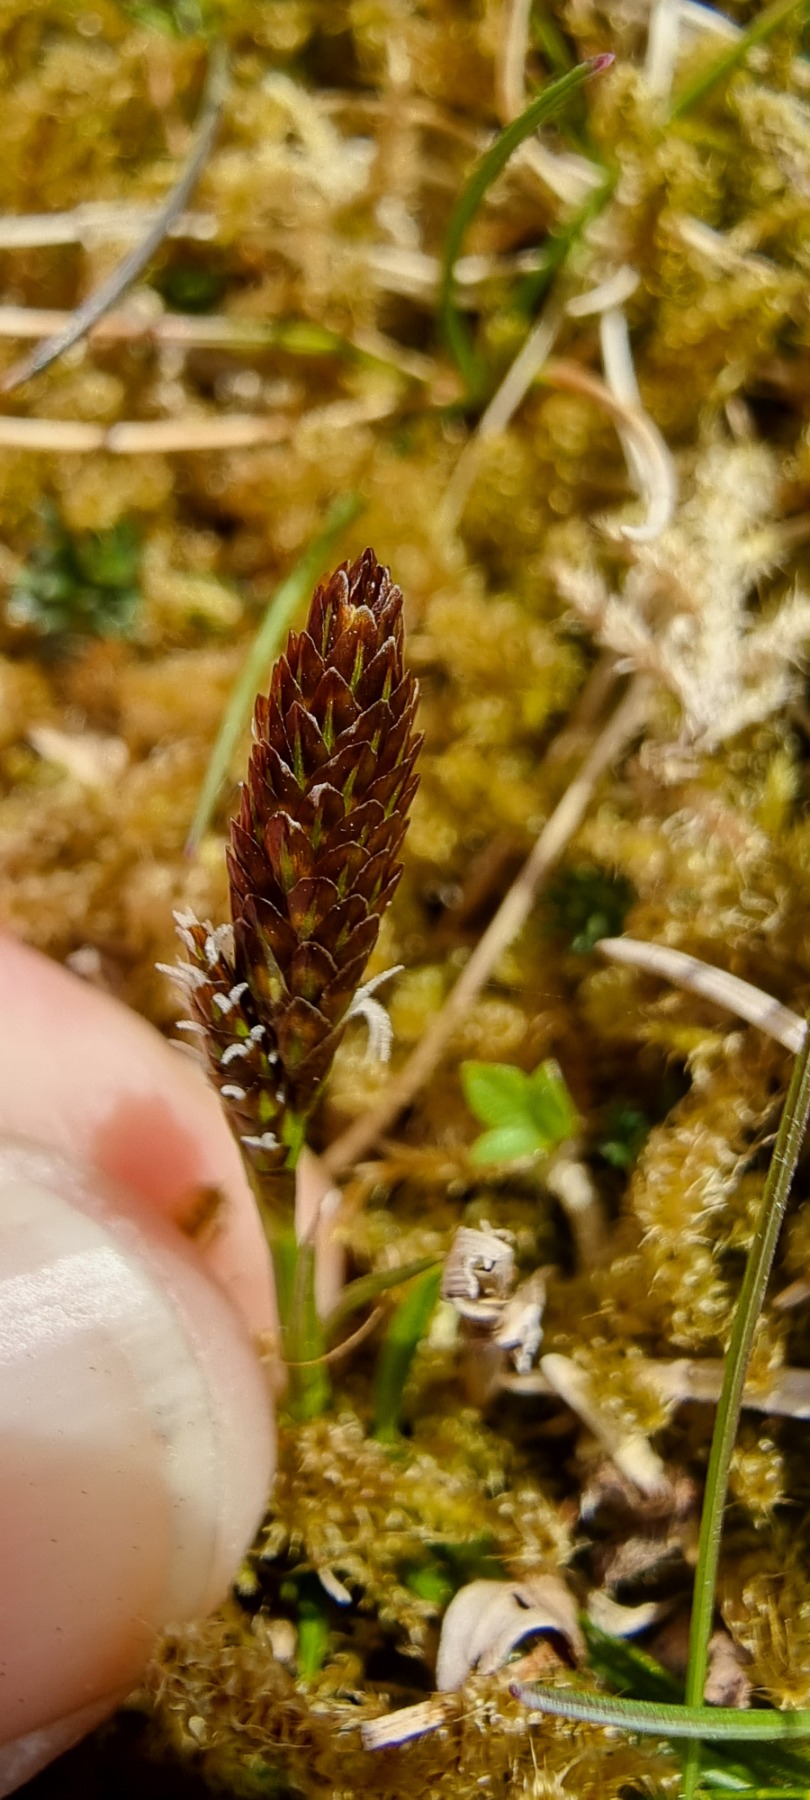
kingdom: Plantae
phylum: Tracheophyta
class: Liliopsida
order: Poales
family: Cyperaceae
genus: Carex
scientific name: Carex caryophyllea
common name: Vår-star
